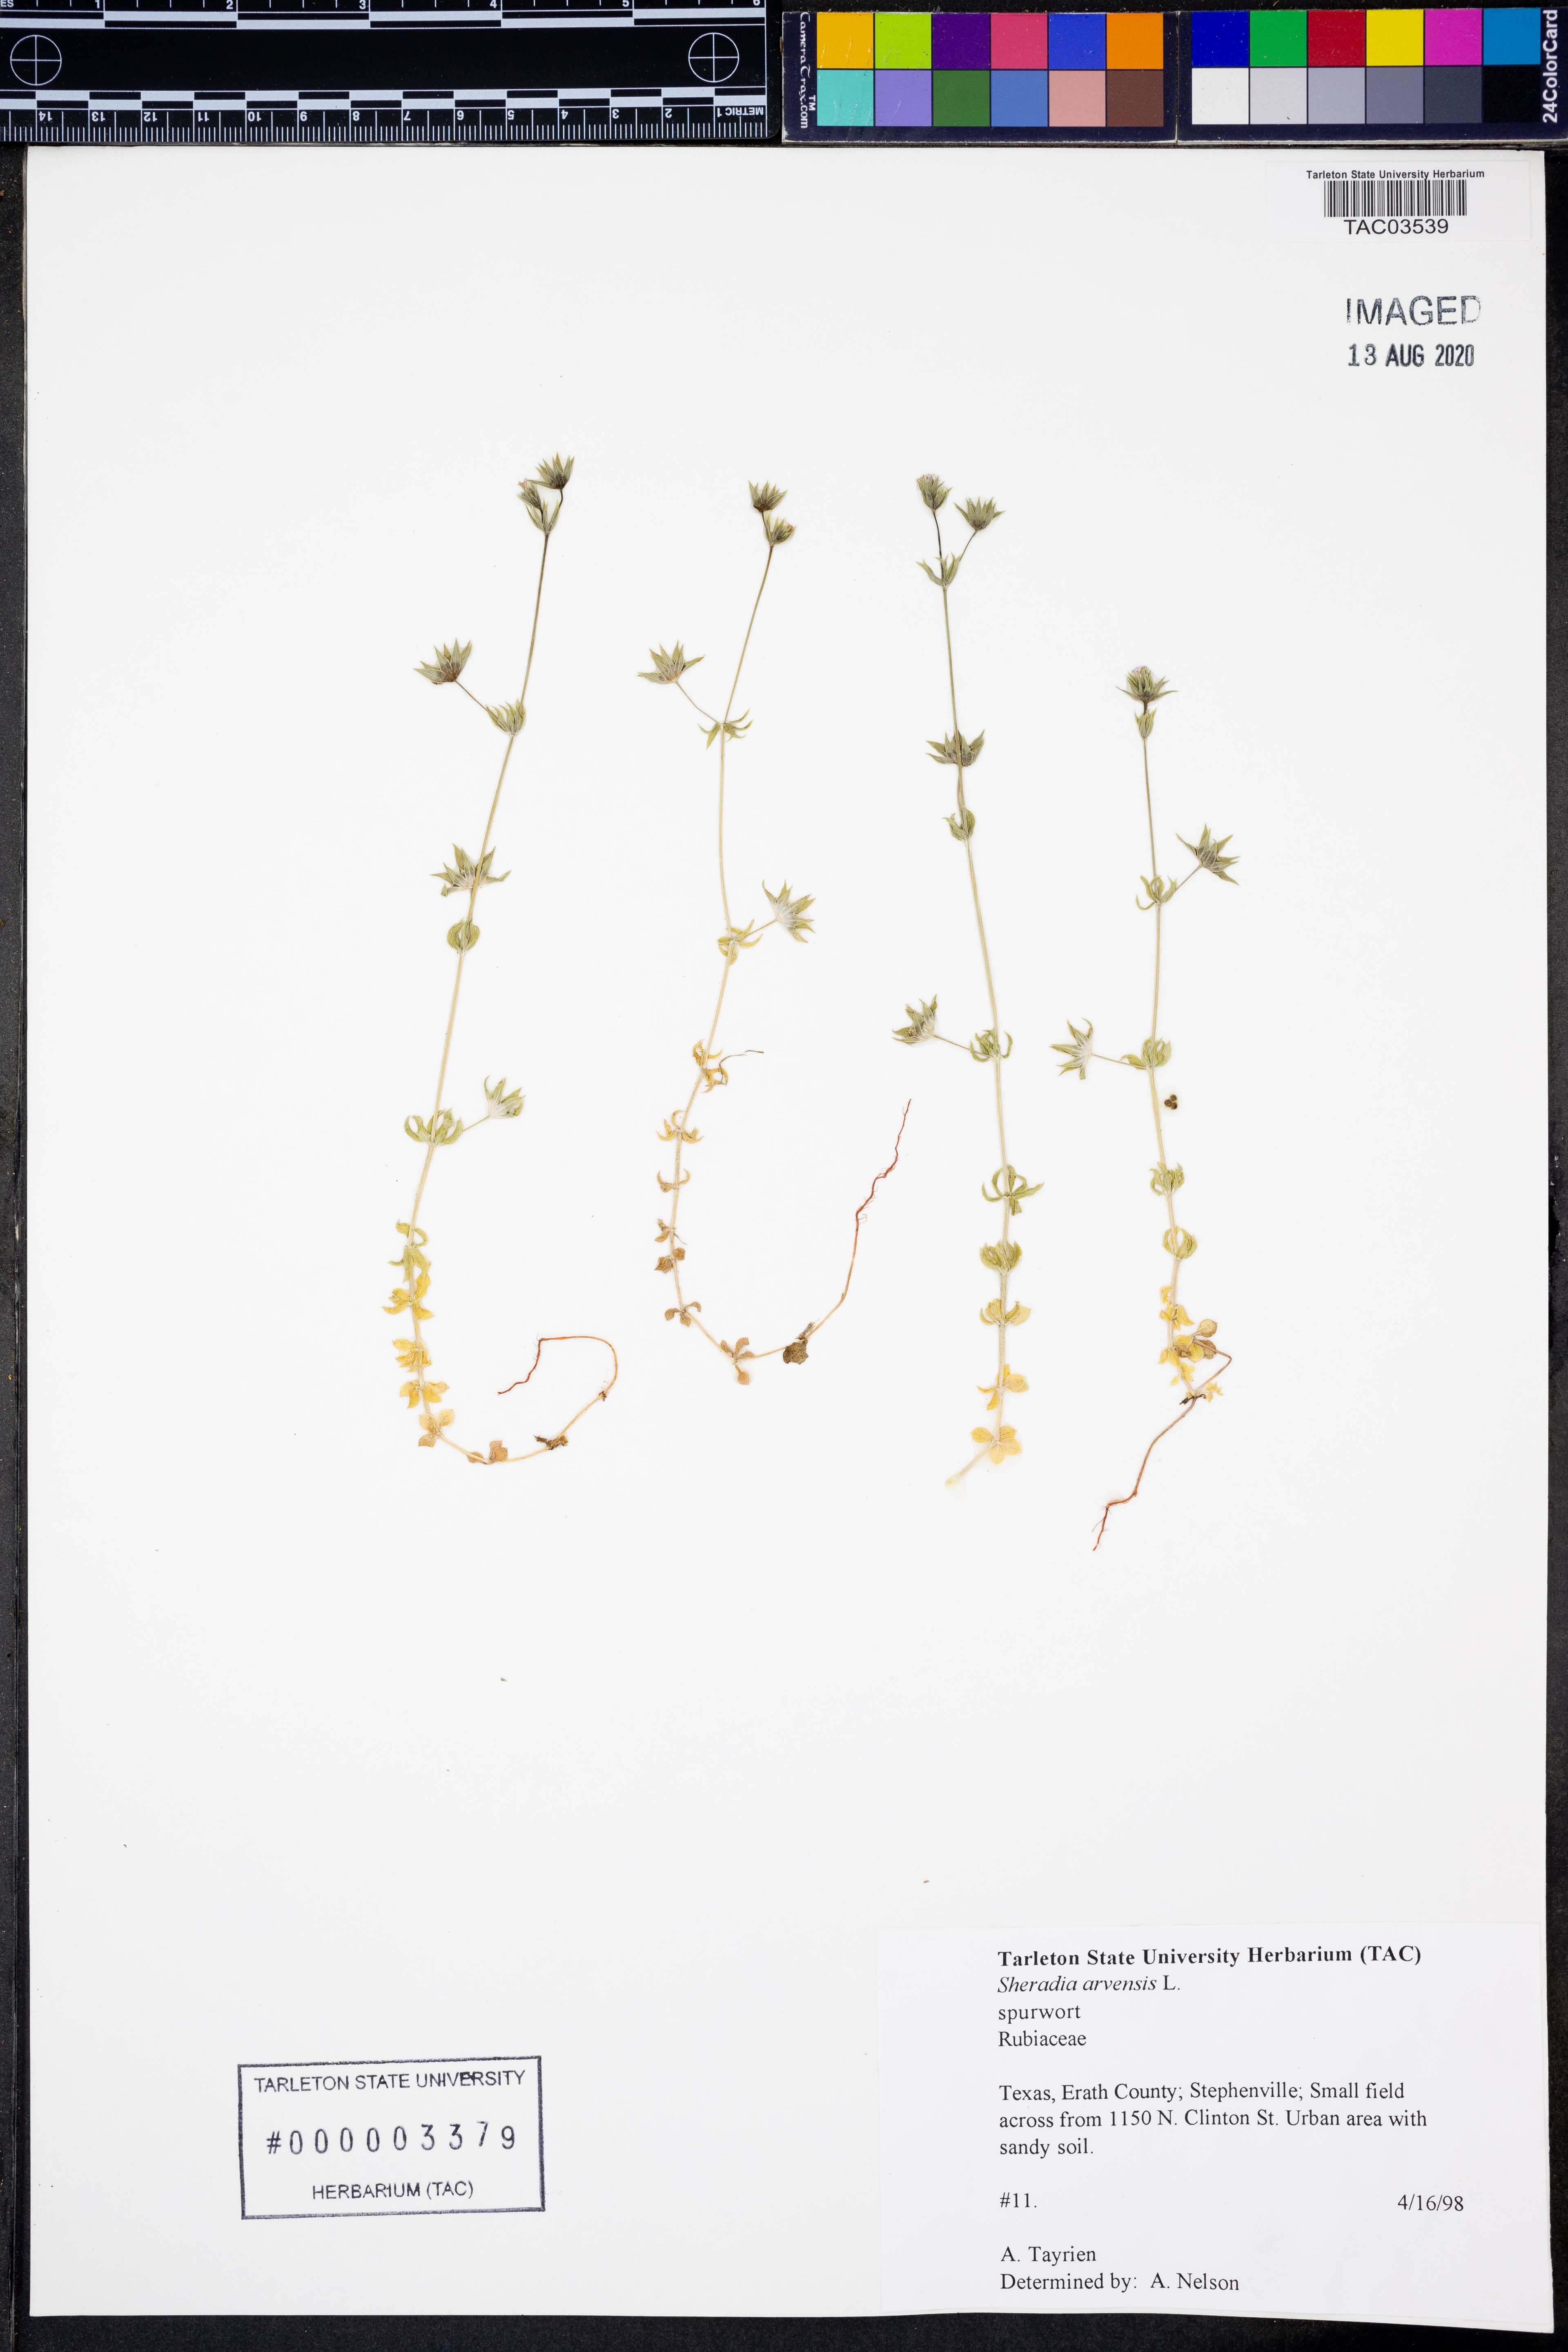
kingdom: Plantae
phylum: Tracheophyta
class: Magnoliopsida
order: Gentianales
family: Rubiaceae
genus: Sherardia
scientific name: Sherardia arvensis
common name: Field madder
